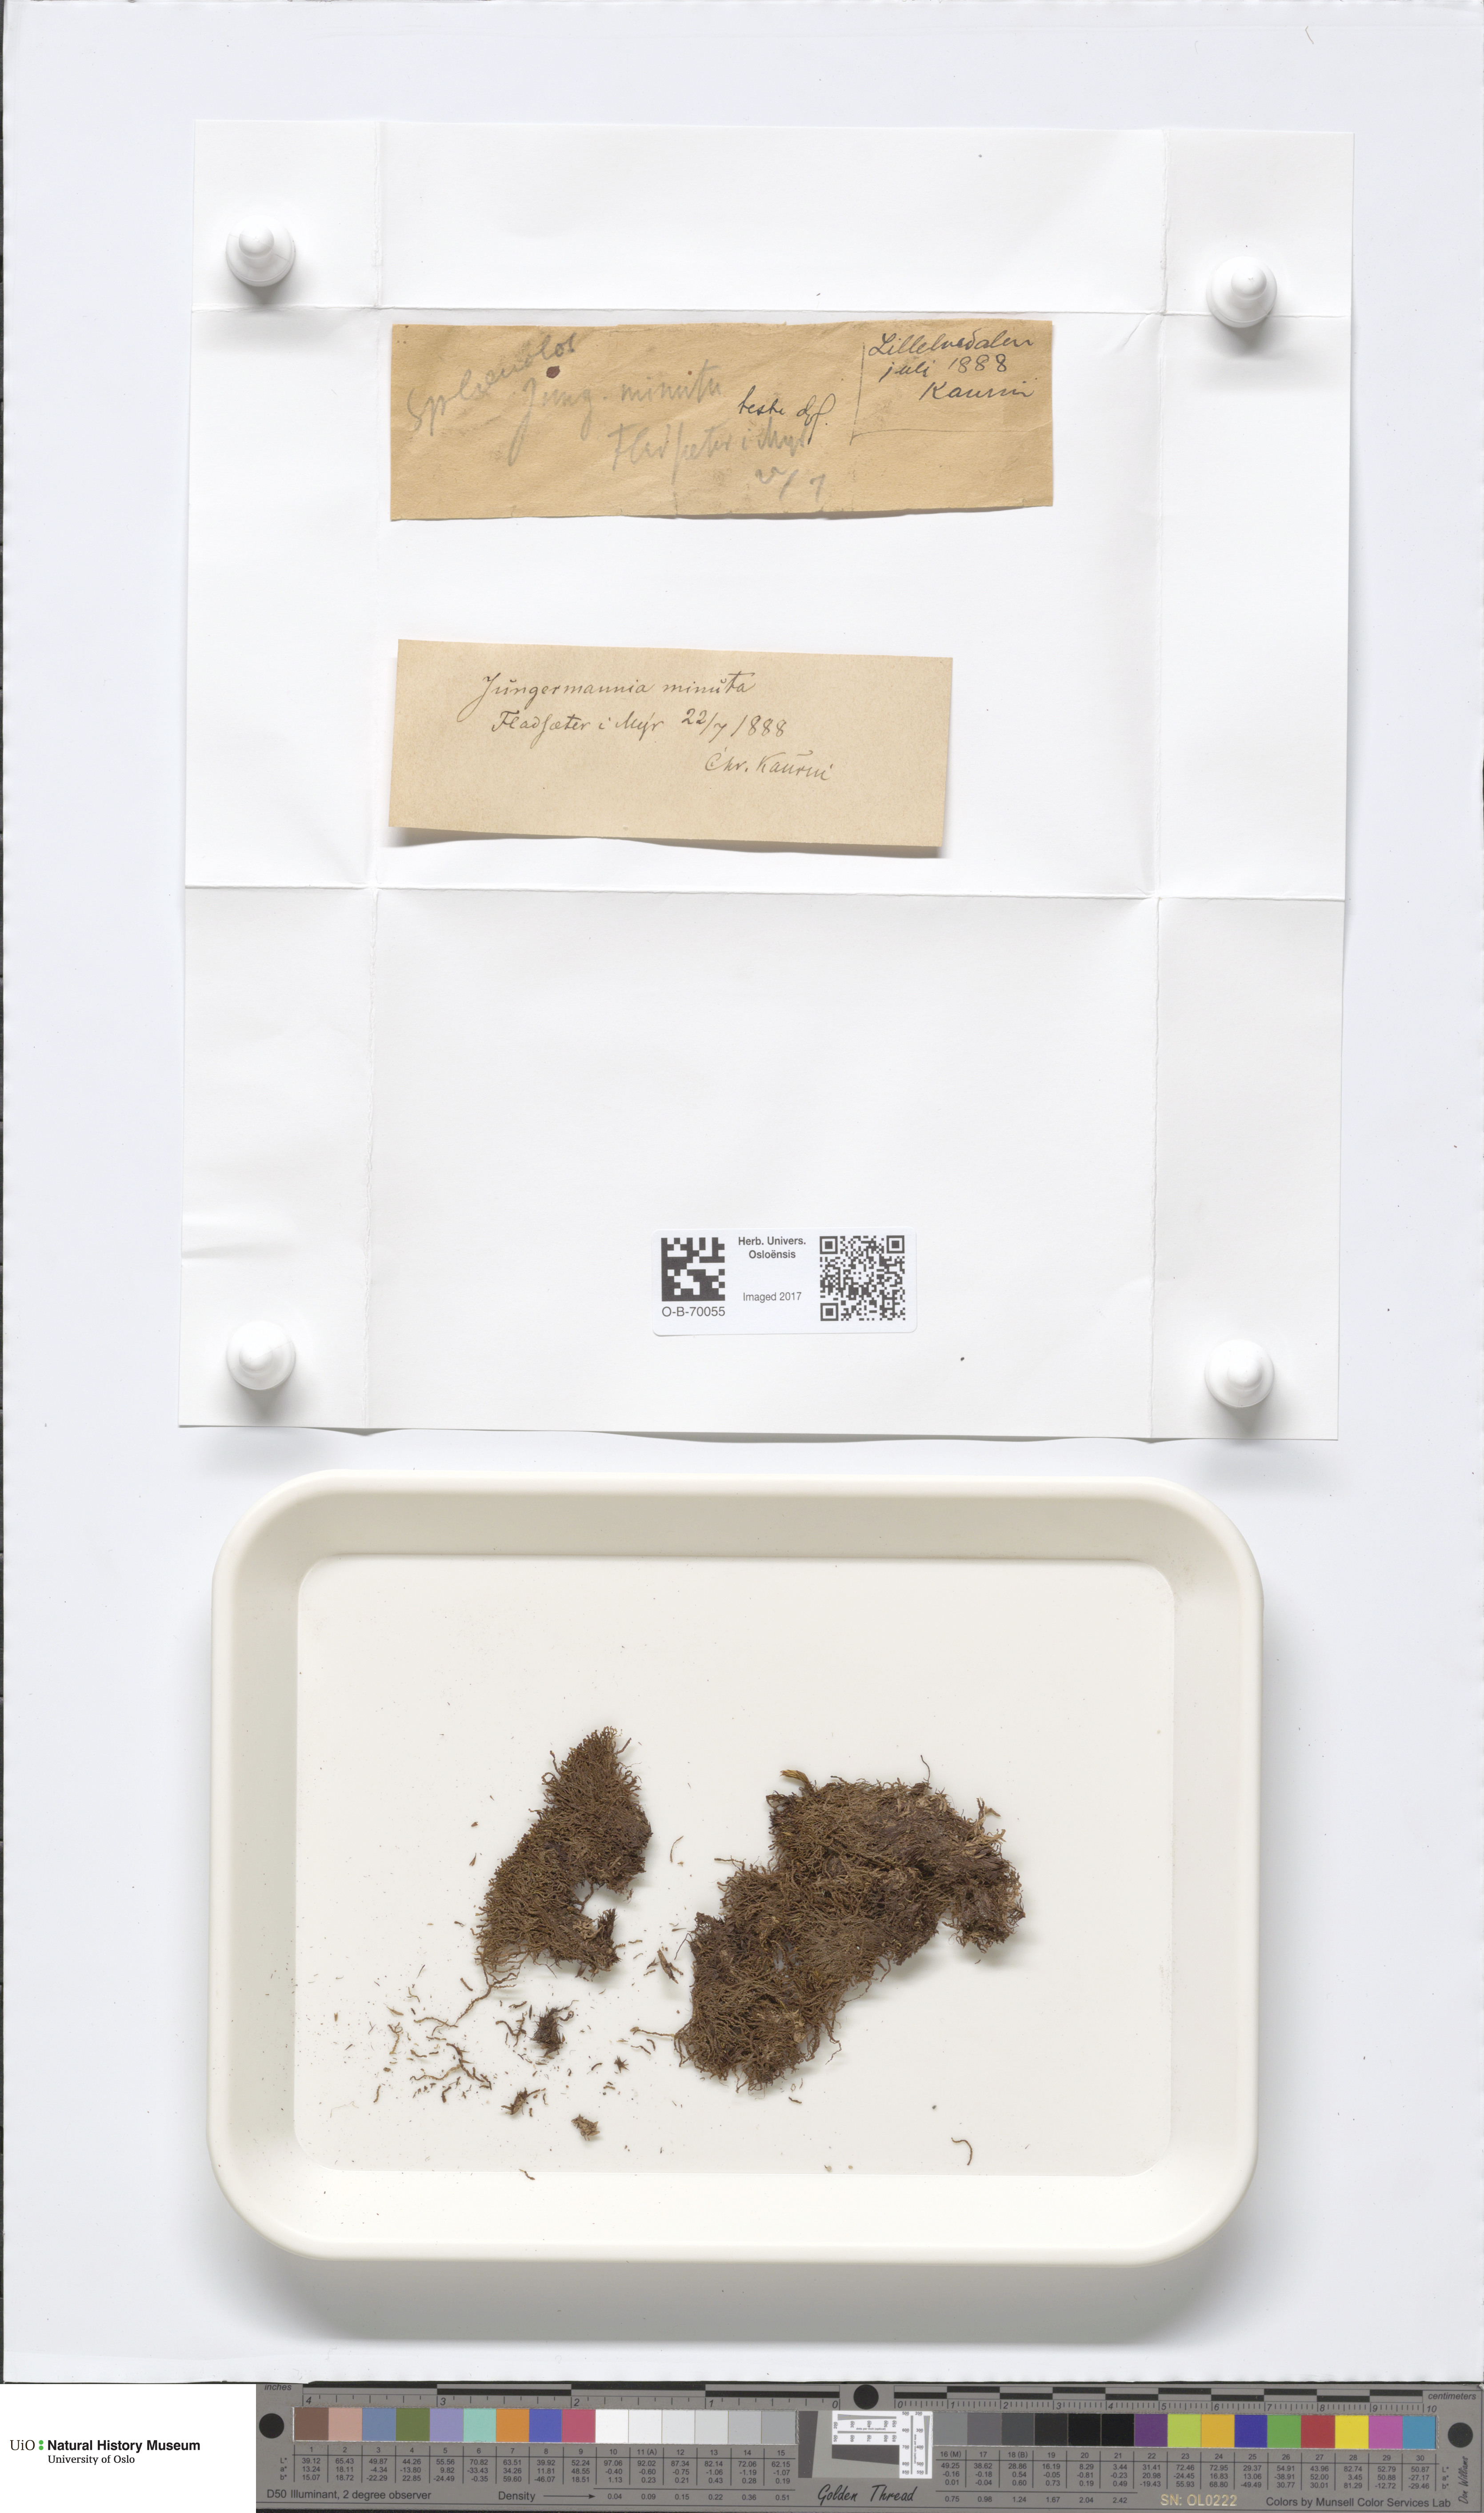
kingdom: Plantae
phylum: Marchantiophyta
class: Jungermanniopsida
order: Jungermanniales
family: Anastrophyllaceae
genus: Sphenolobus
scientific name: Sphenolobus minutus
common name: Comb notchwort
